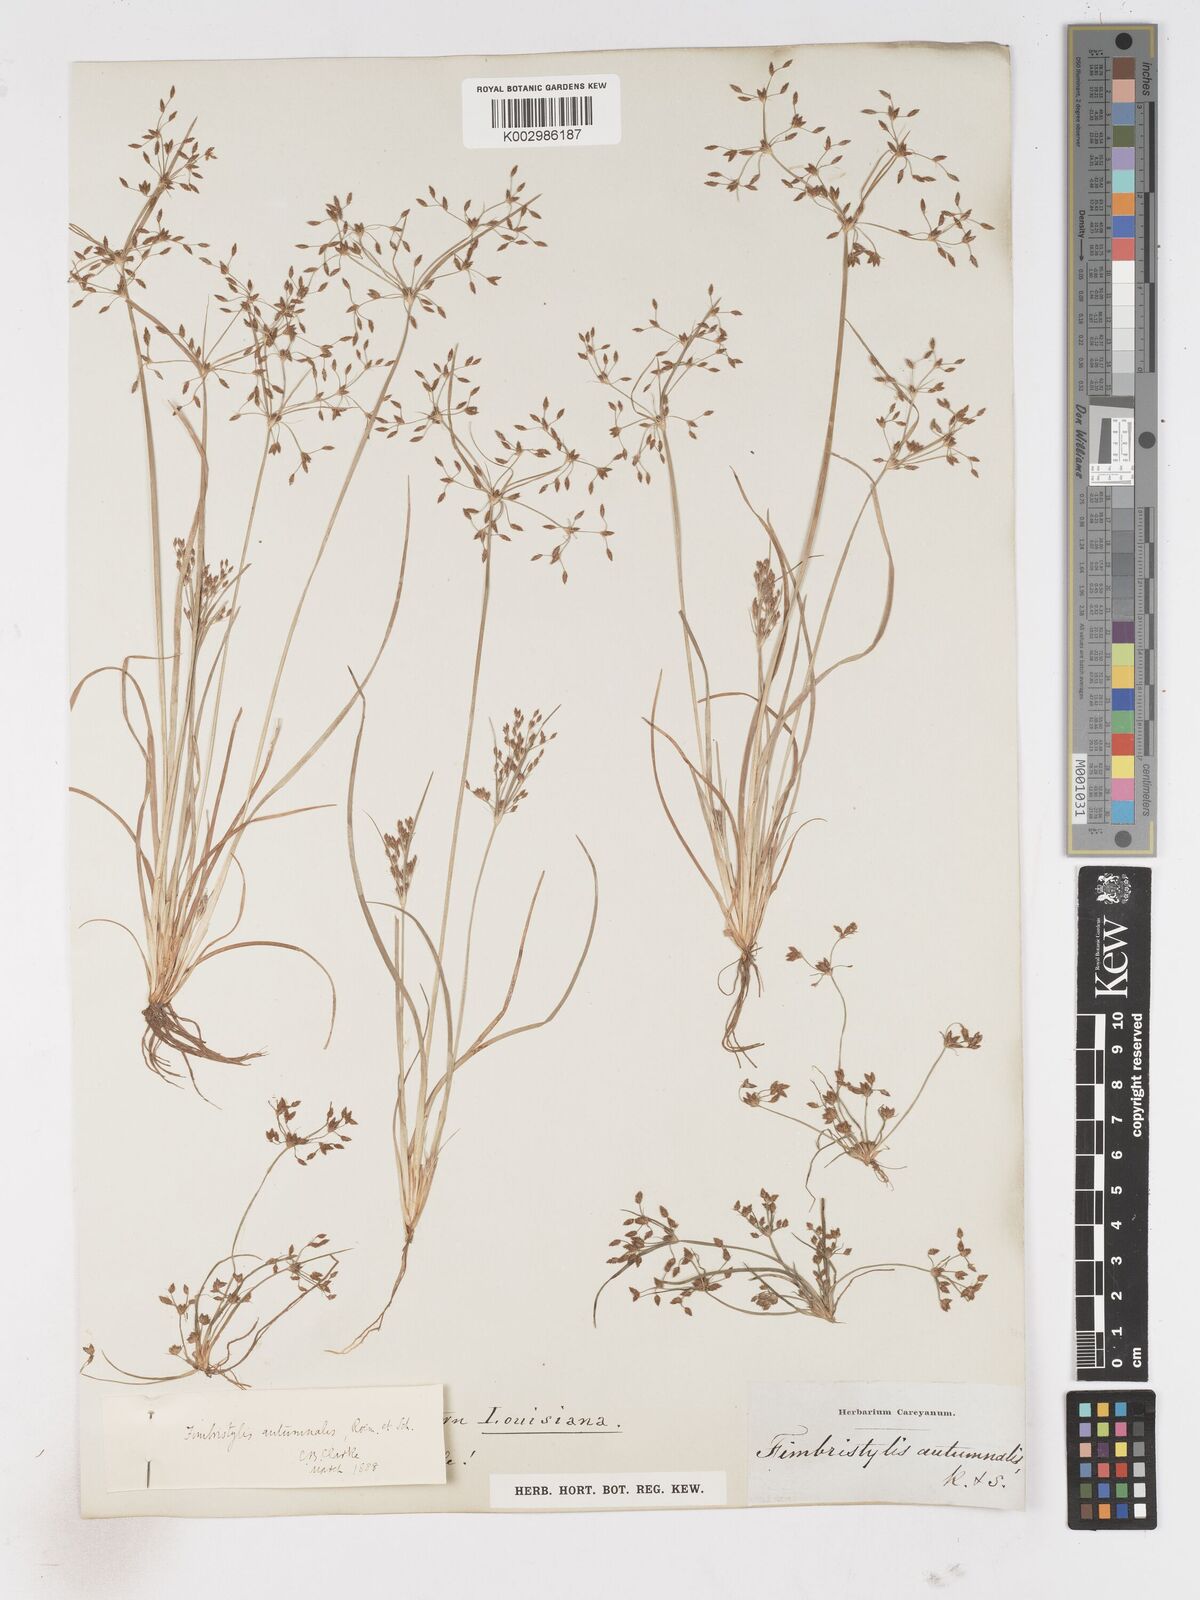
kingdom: Plantae
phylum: Tracheophyta
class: Liliopsida
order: Poales
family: Cyperaceae
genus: Fimbristylis
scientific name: Fimbristylis autumnalis
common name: Slender fimbristylis
